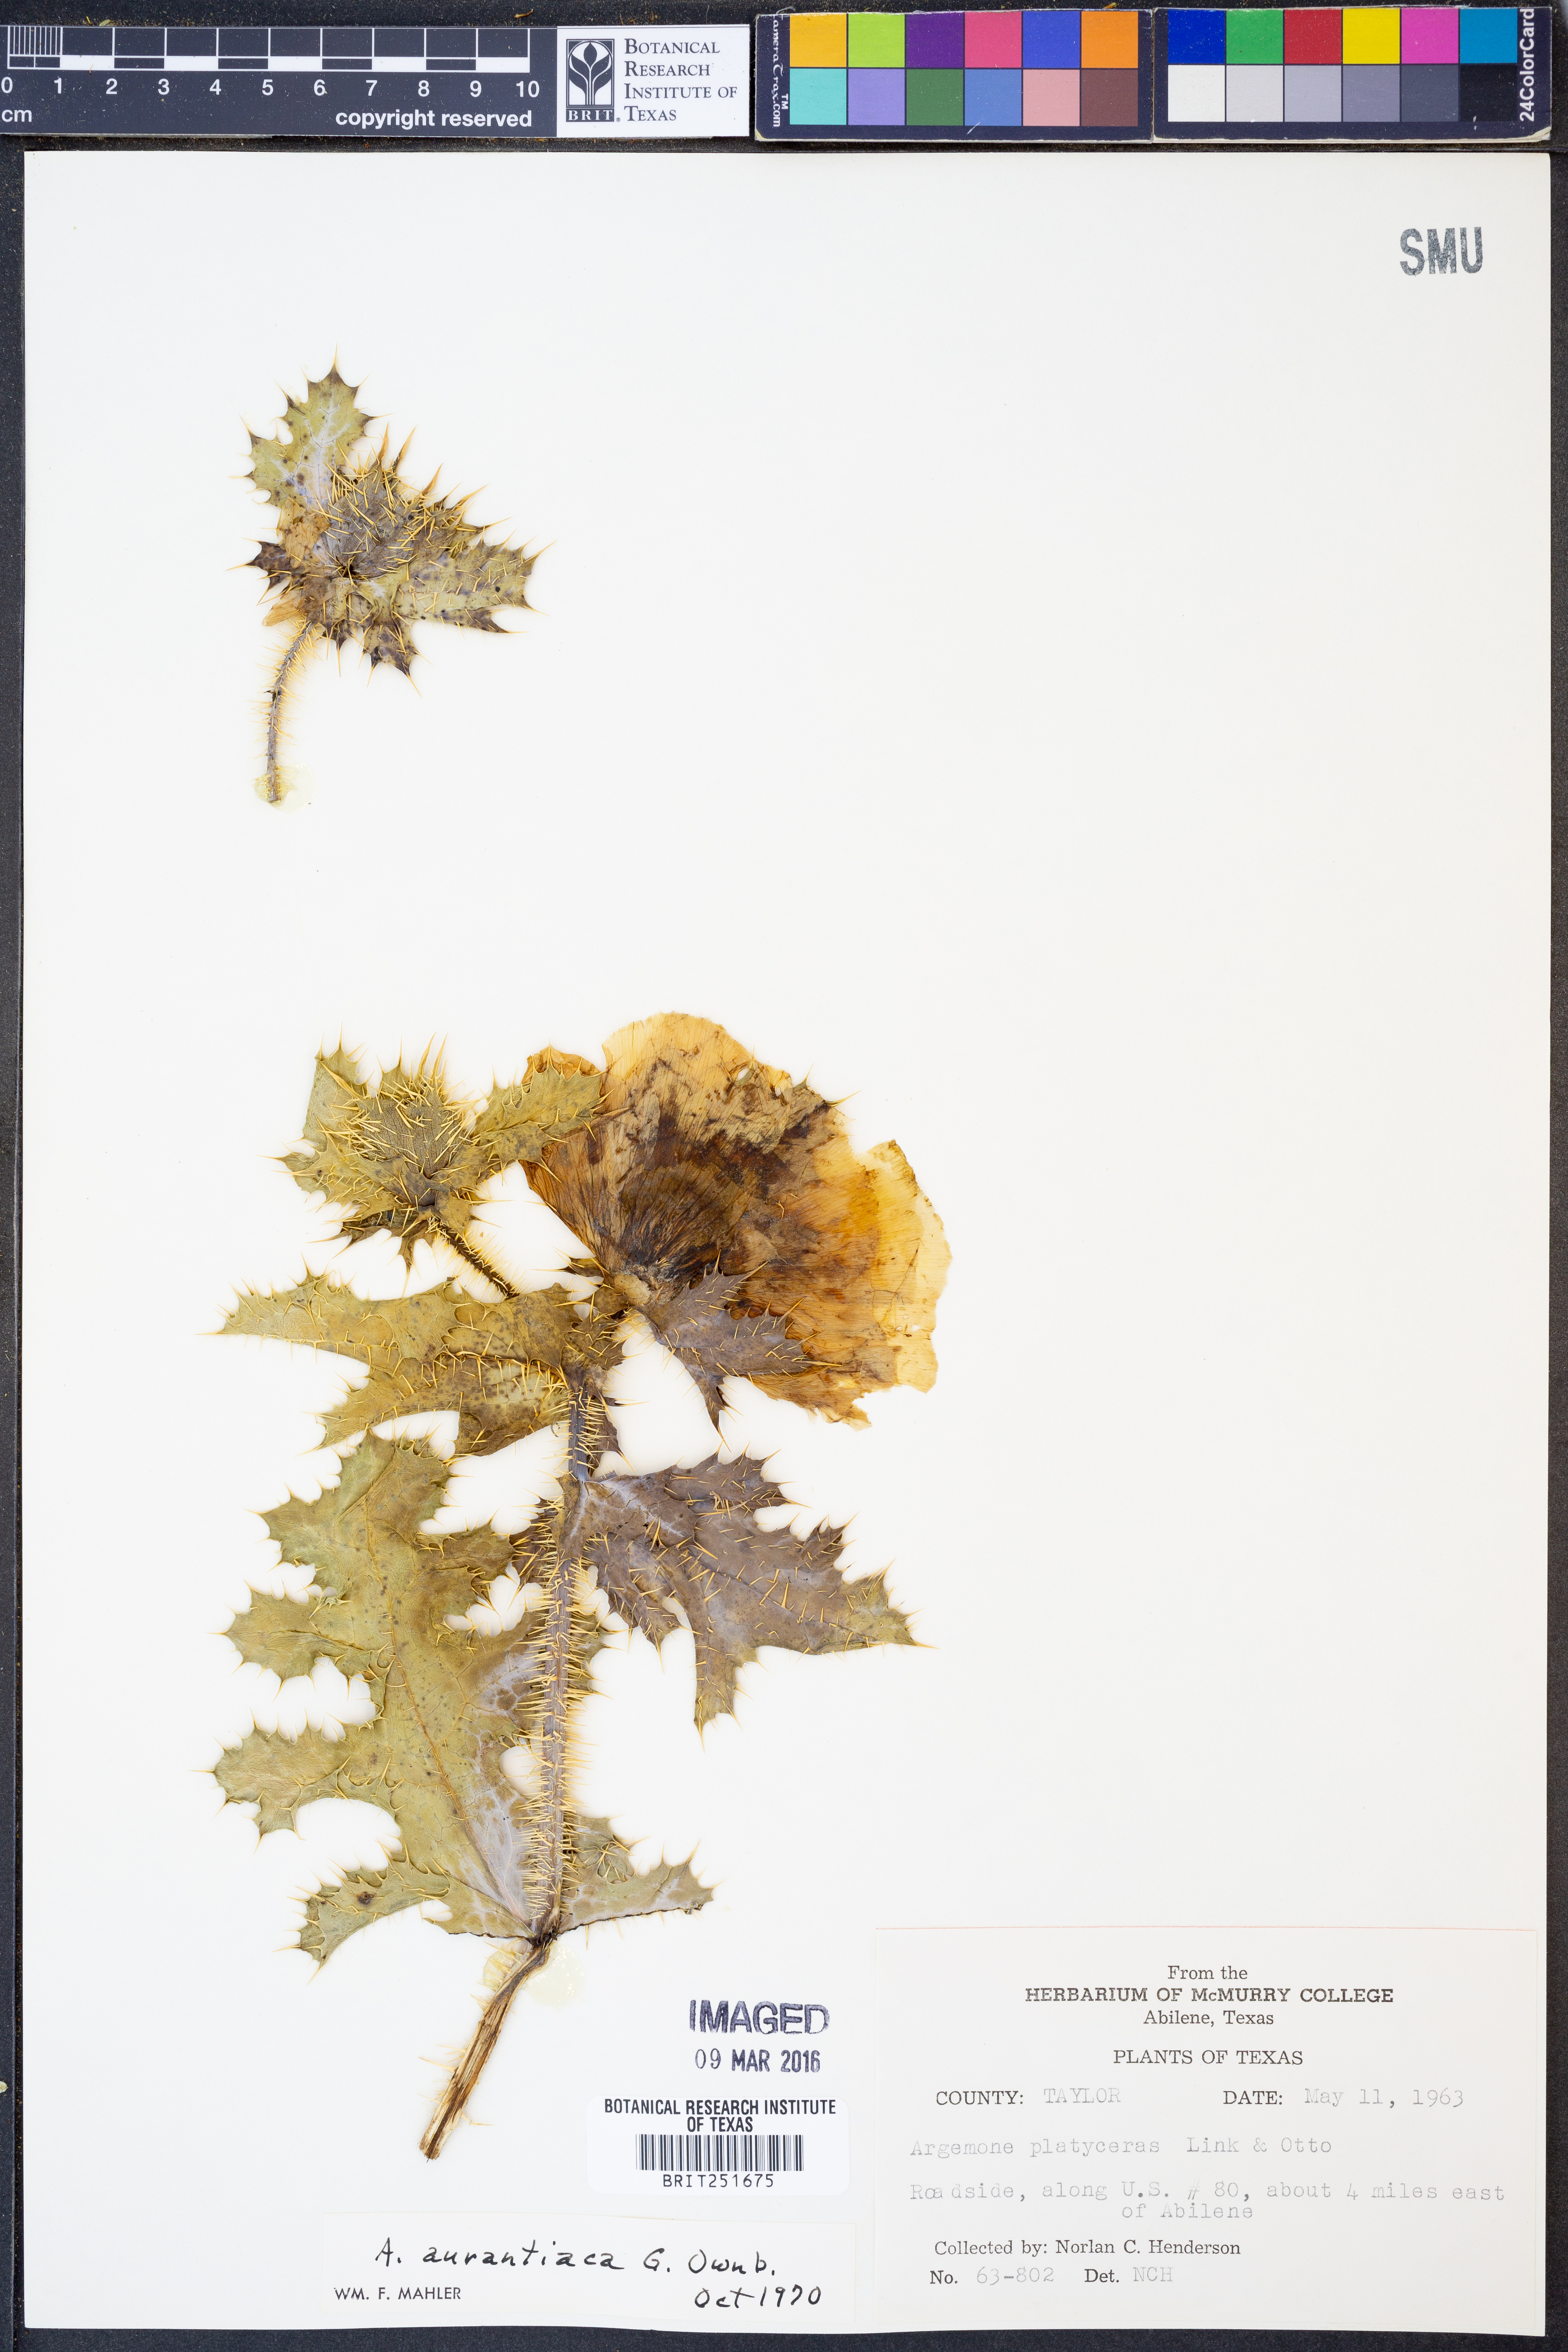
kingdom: Plantae
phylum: Tracheophyta
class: Magnoliopsida
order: Ranunculales
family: Papaveraceae
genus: Argemone
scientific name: Argemone aurantiaca
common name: Texas prickly-poppy
